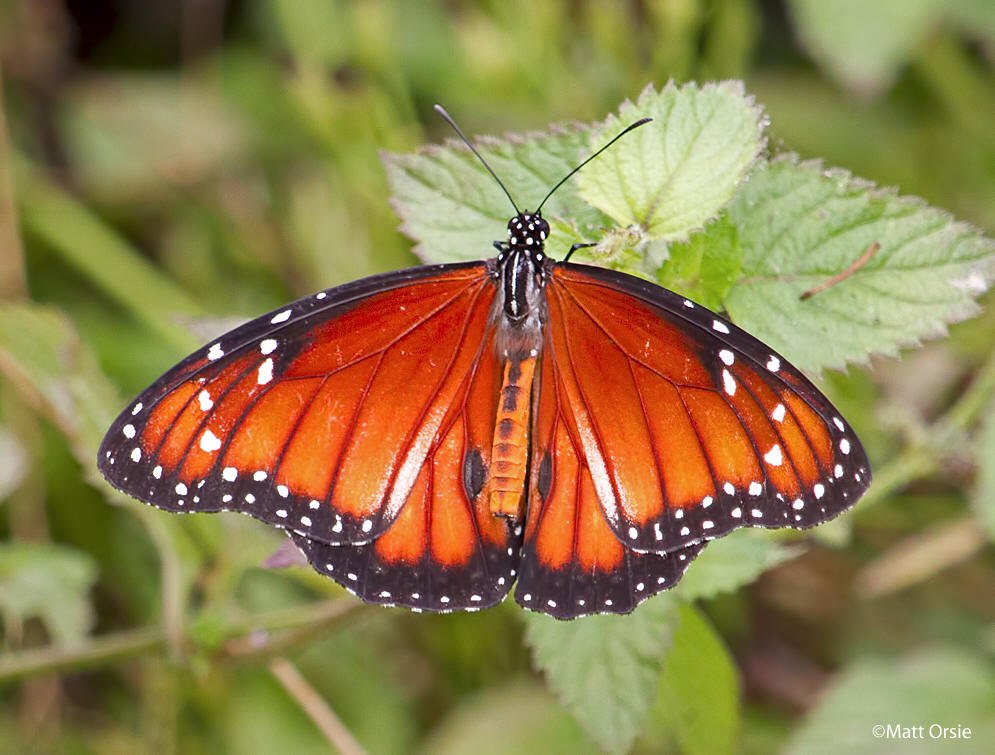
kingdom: Animalia
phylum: Arthropoda
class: Insecta
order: Lepidoptera
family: Nymphalidae
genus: Danaus
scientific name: Danaus eresimus
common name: Soldier
